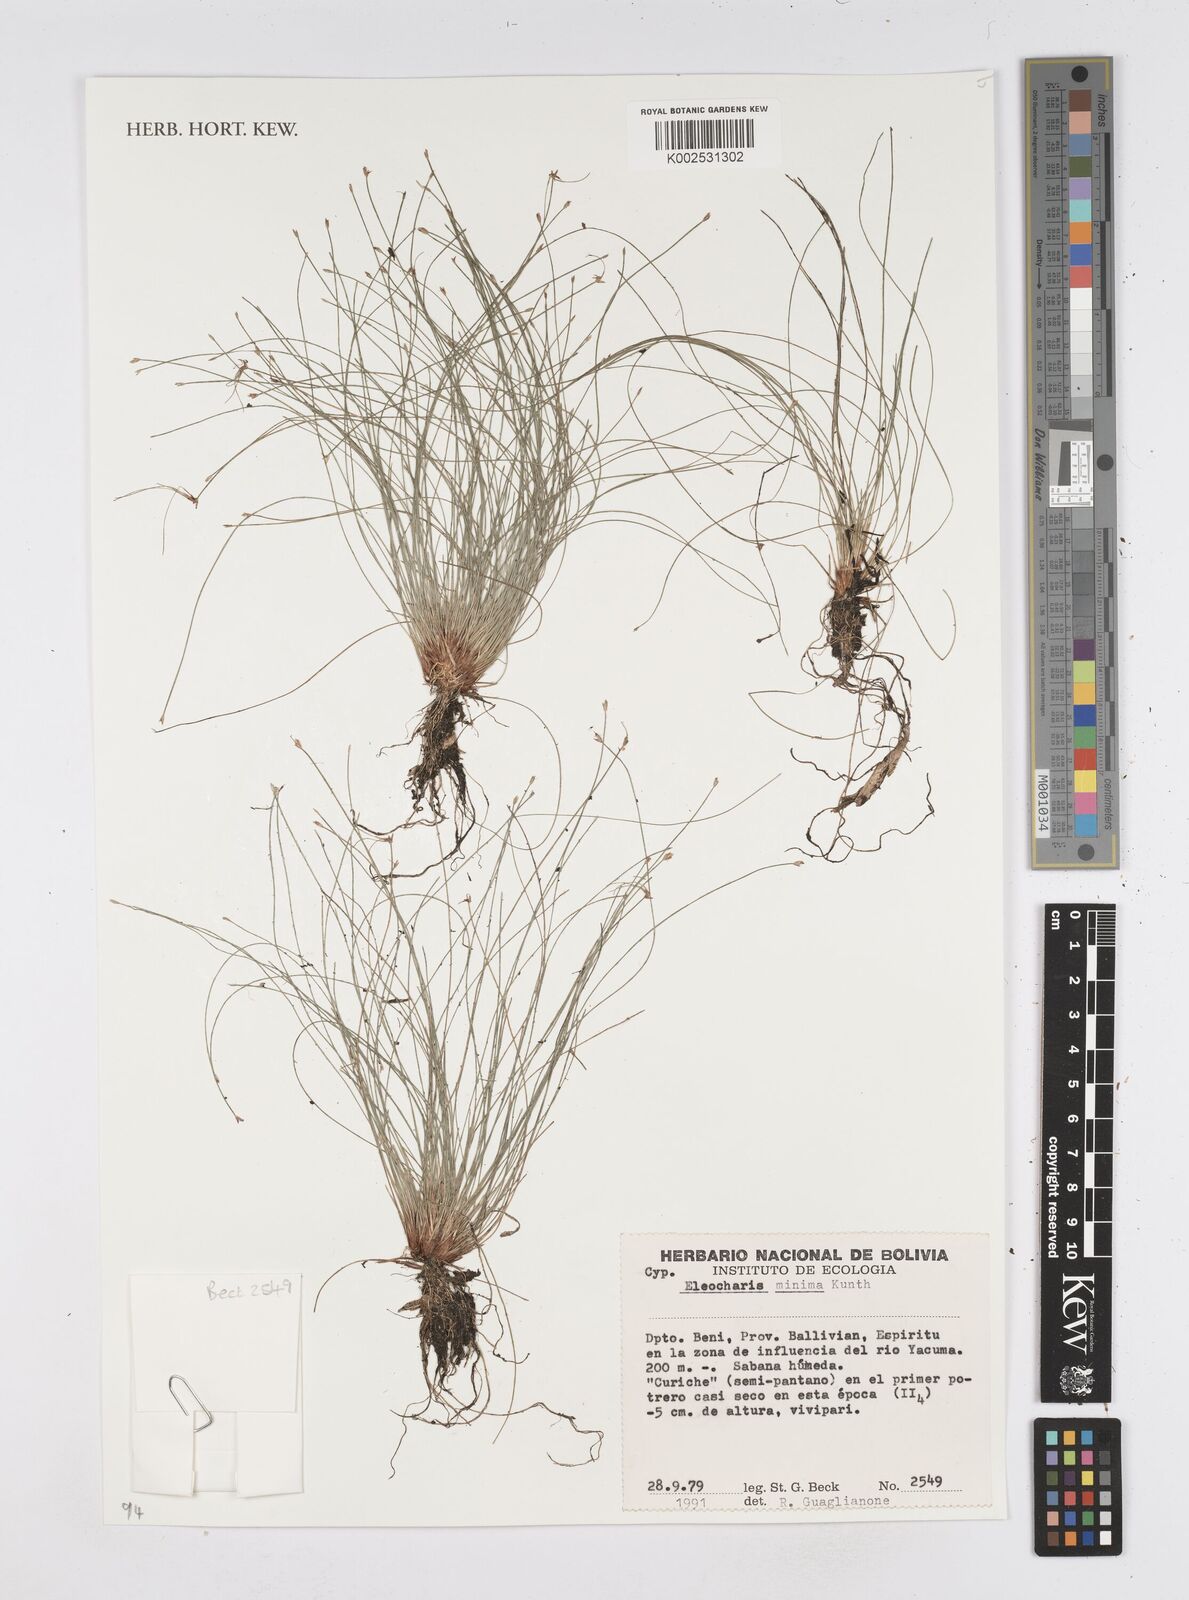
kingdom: Plantae
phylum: Tracheophyta
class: Liliopsida
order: Poales
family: Cyperaceae
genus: Eleocharis
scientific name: Eleocharis minima
